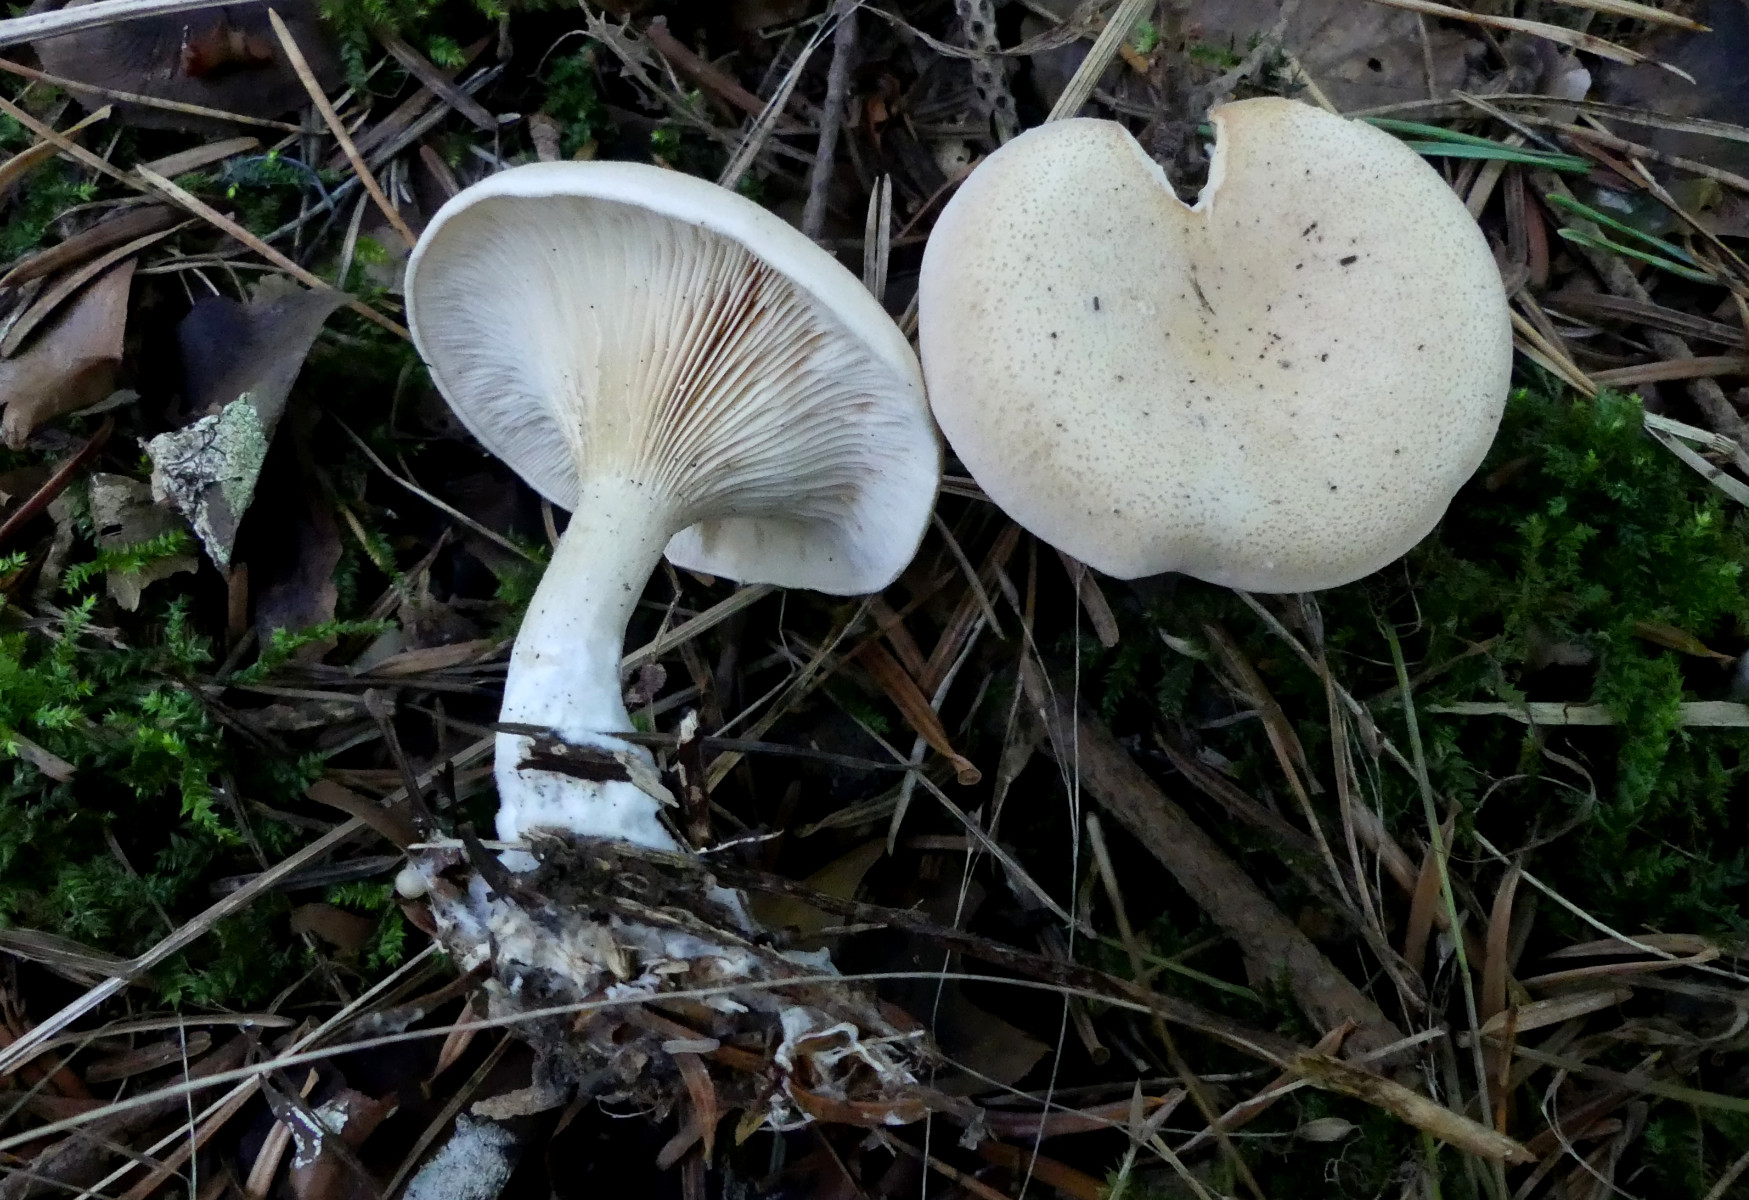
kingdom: Fungi
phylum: Basidiomycota
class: Agaricomycetes
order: Agaricales
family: Tricholomataceae
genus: Clitocybe
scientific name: Clitocybe
